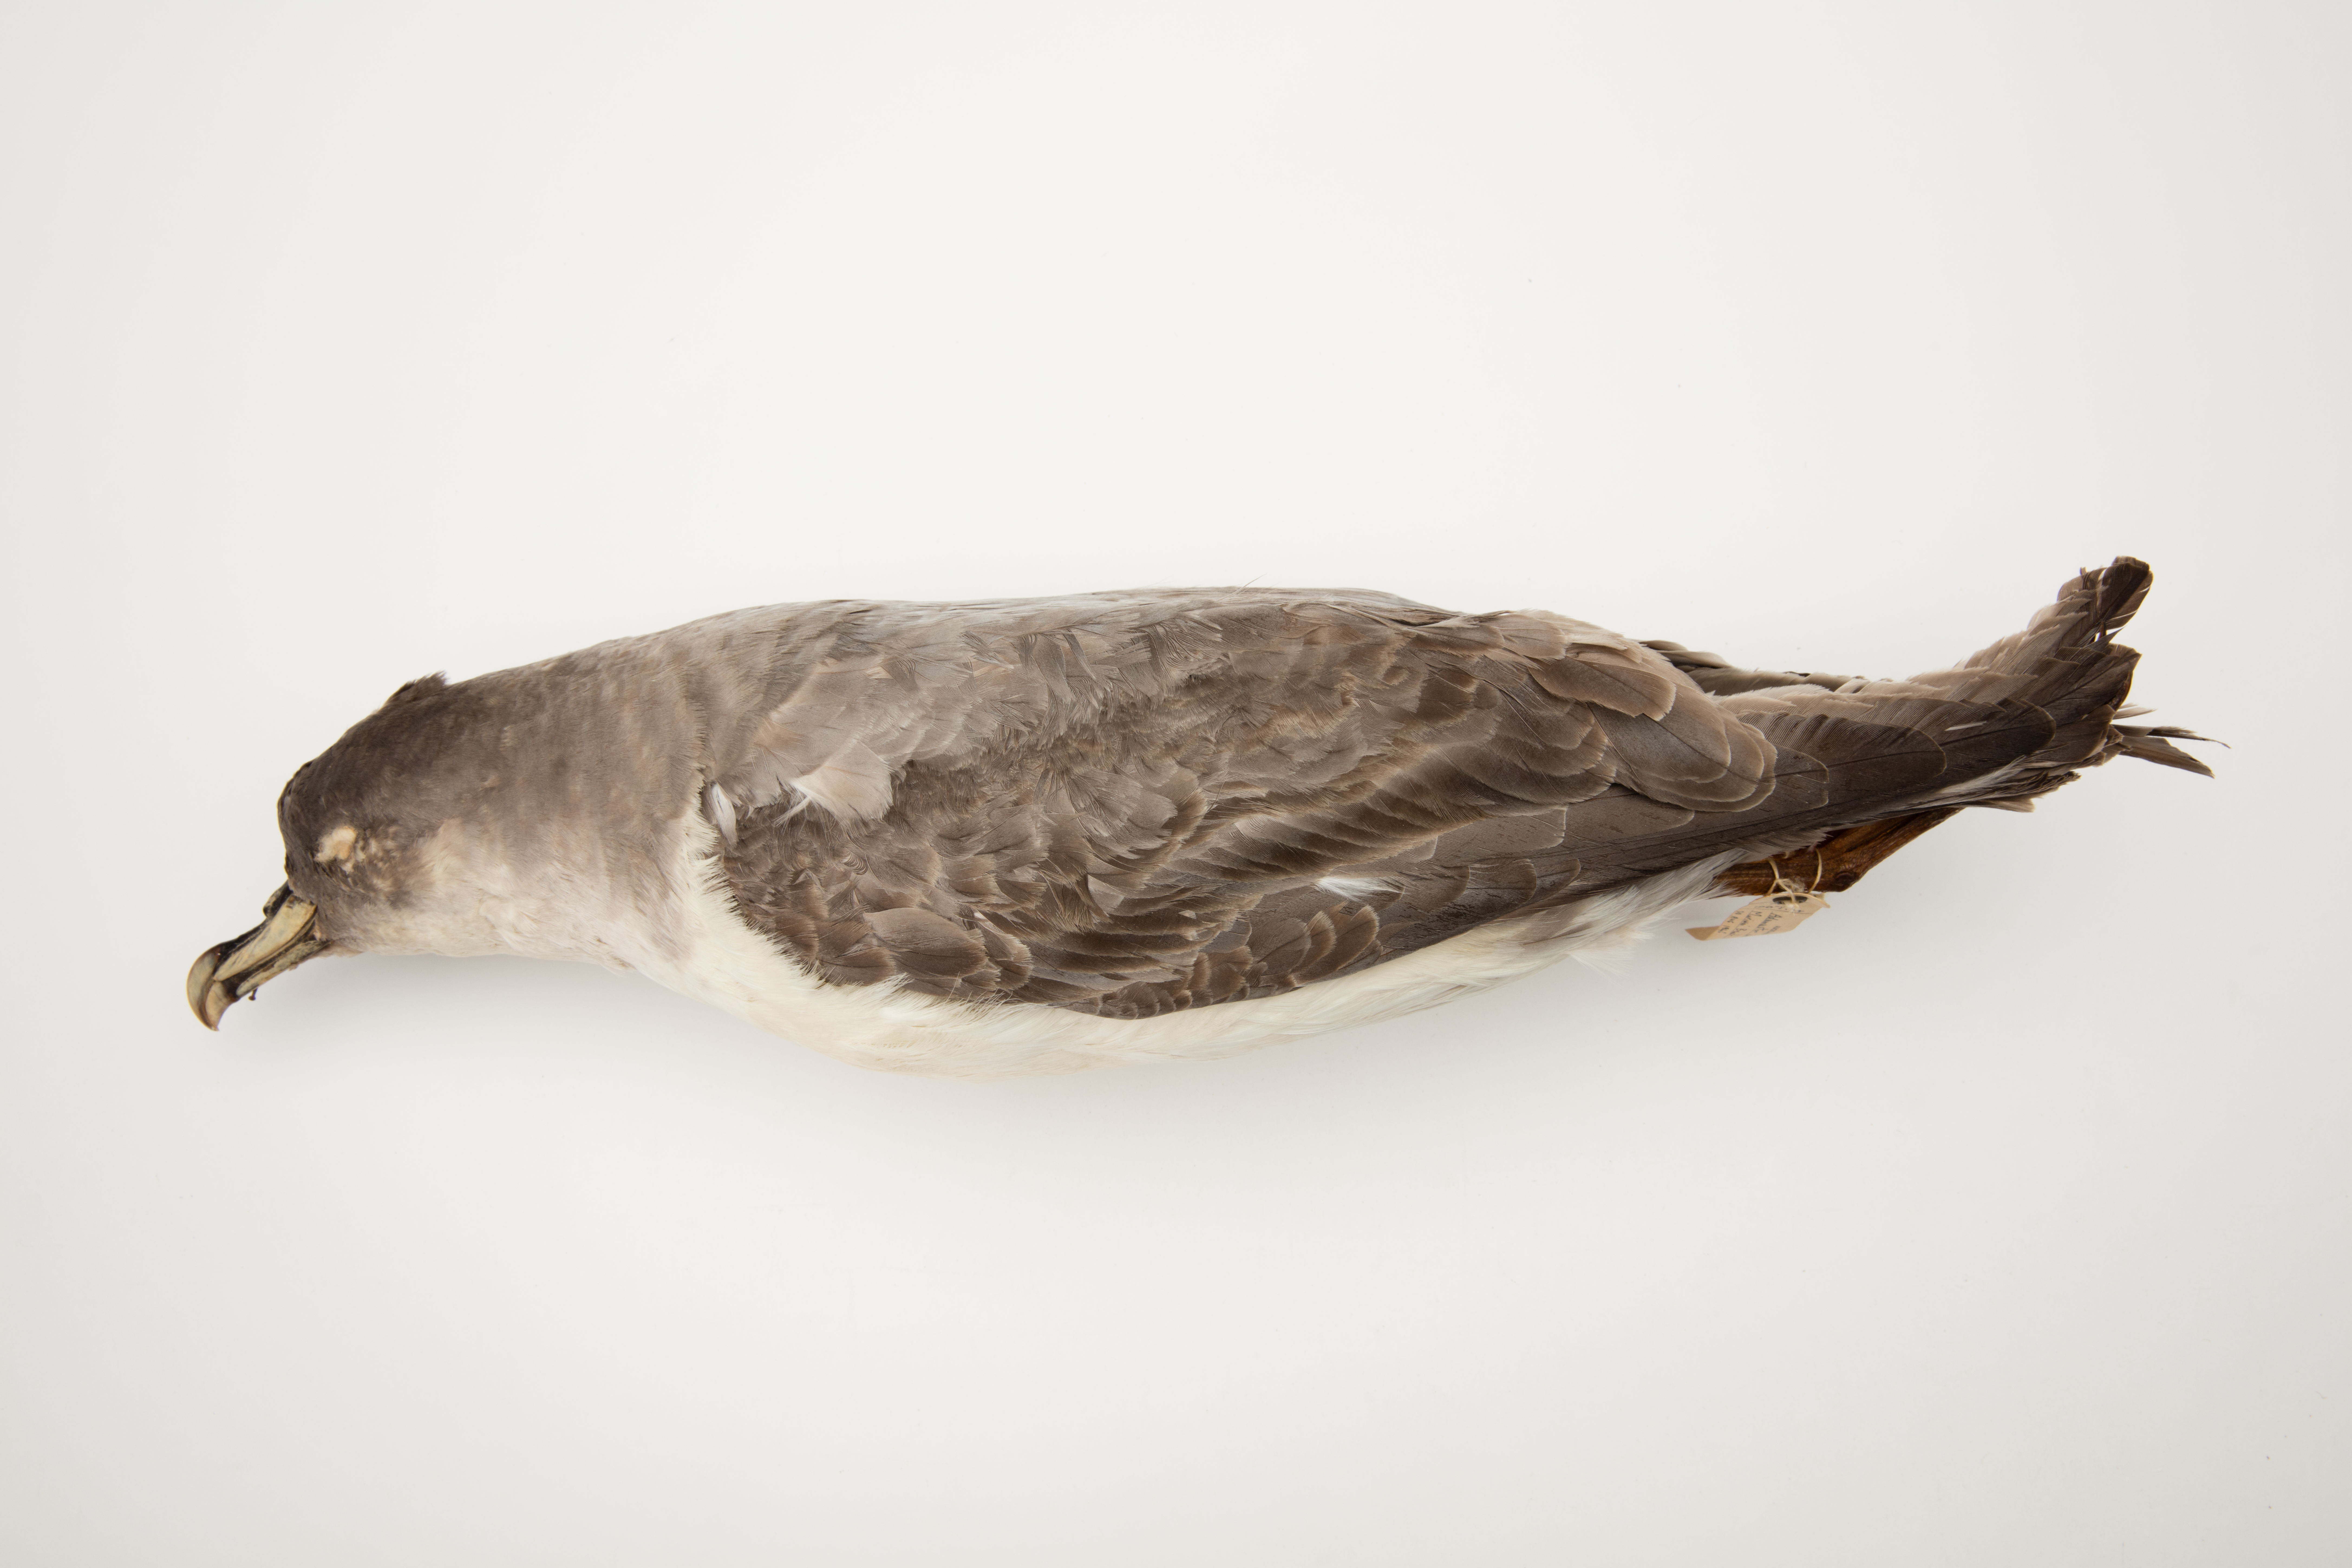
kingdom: Animalia
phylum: Chordata
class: Aves
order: Procellariiformes
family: Procellariidae
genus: Procellaria
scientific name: Procellaria cinerea
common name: Grey petrel
